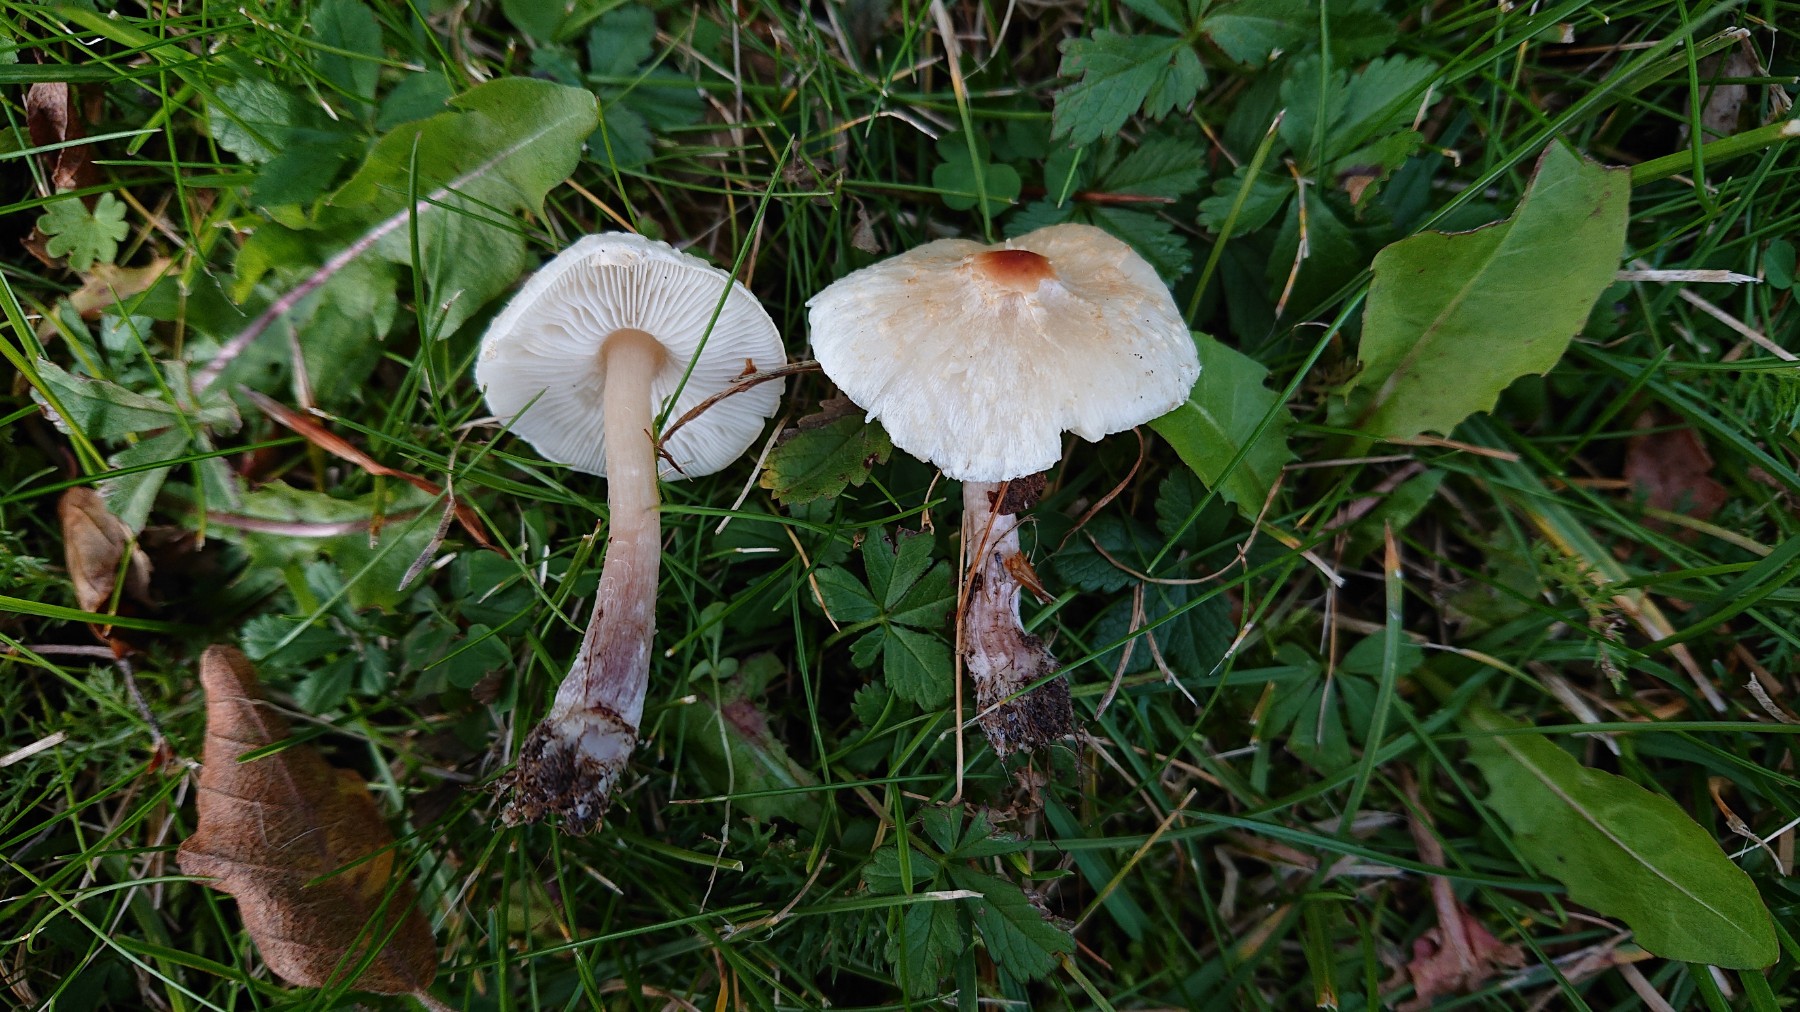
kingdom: Fungi
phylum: Basidiomycota
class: Agaricomycetes
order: Agaricales
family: Agaricaceae
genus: Lepiota
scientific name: Lepiota cristata
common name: stinkende parasolhat
